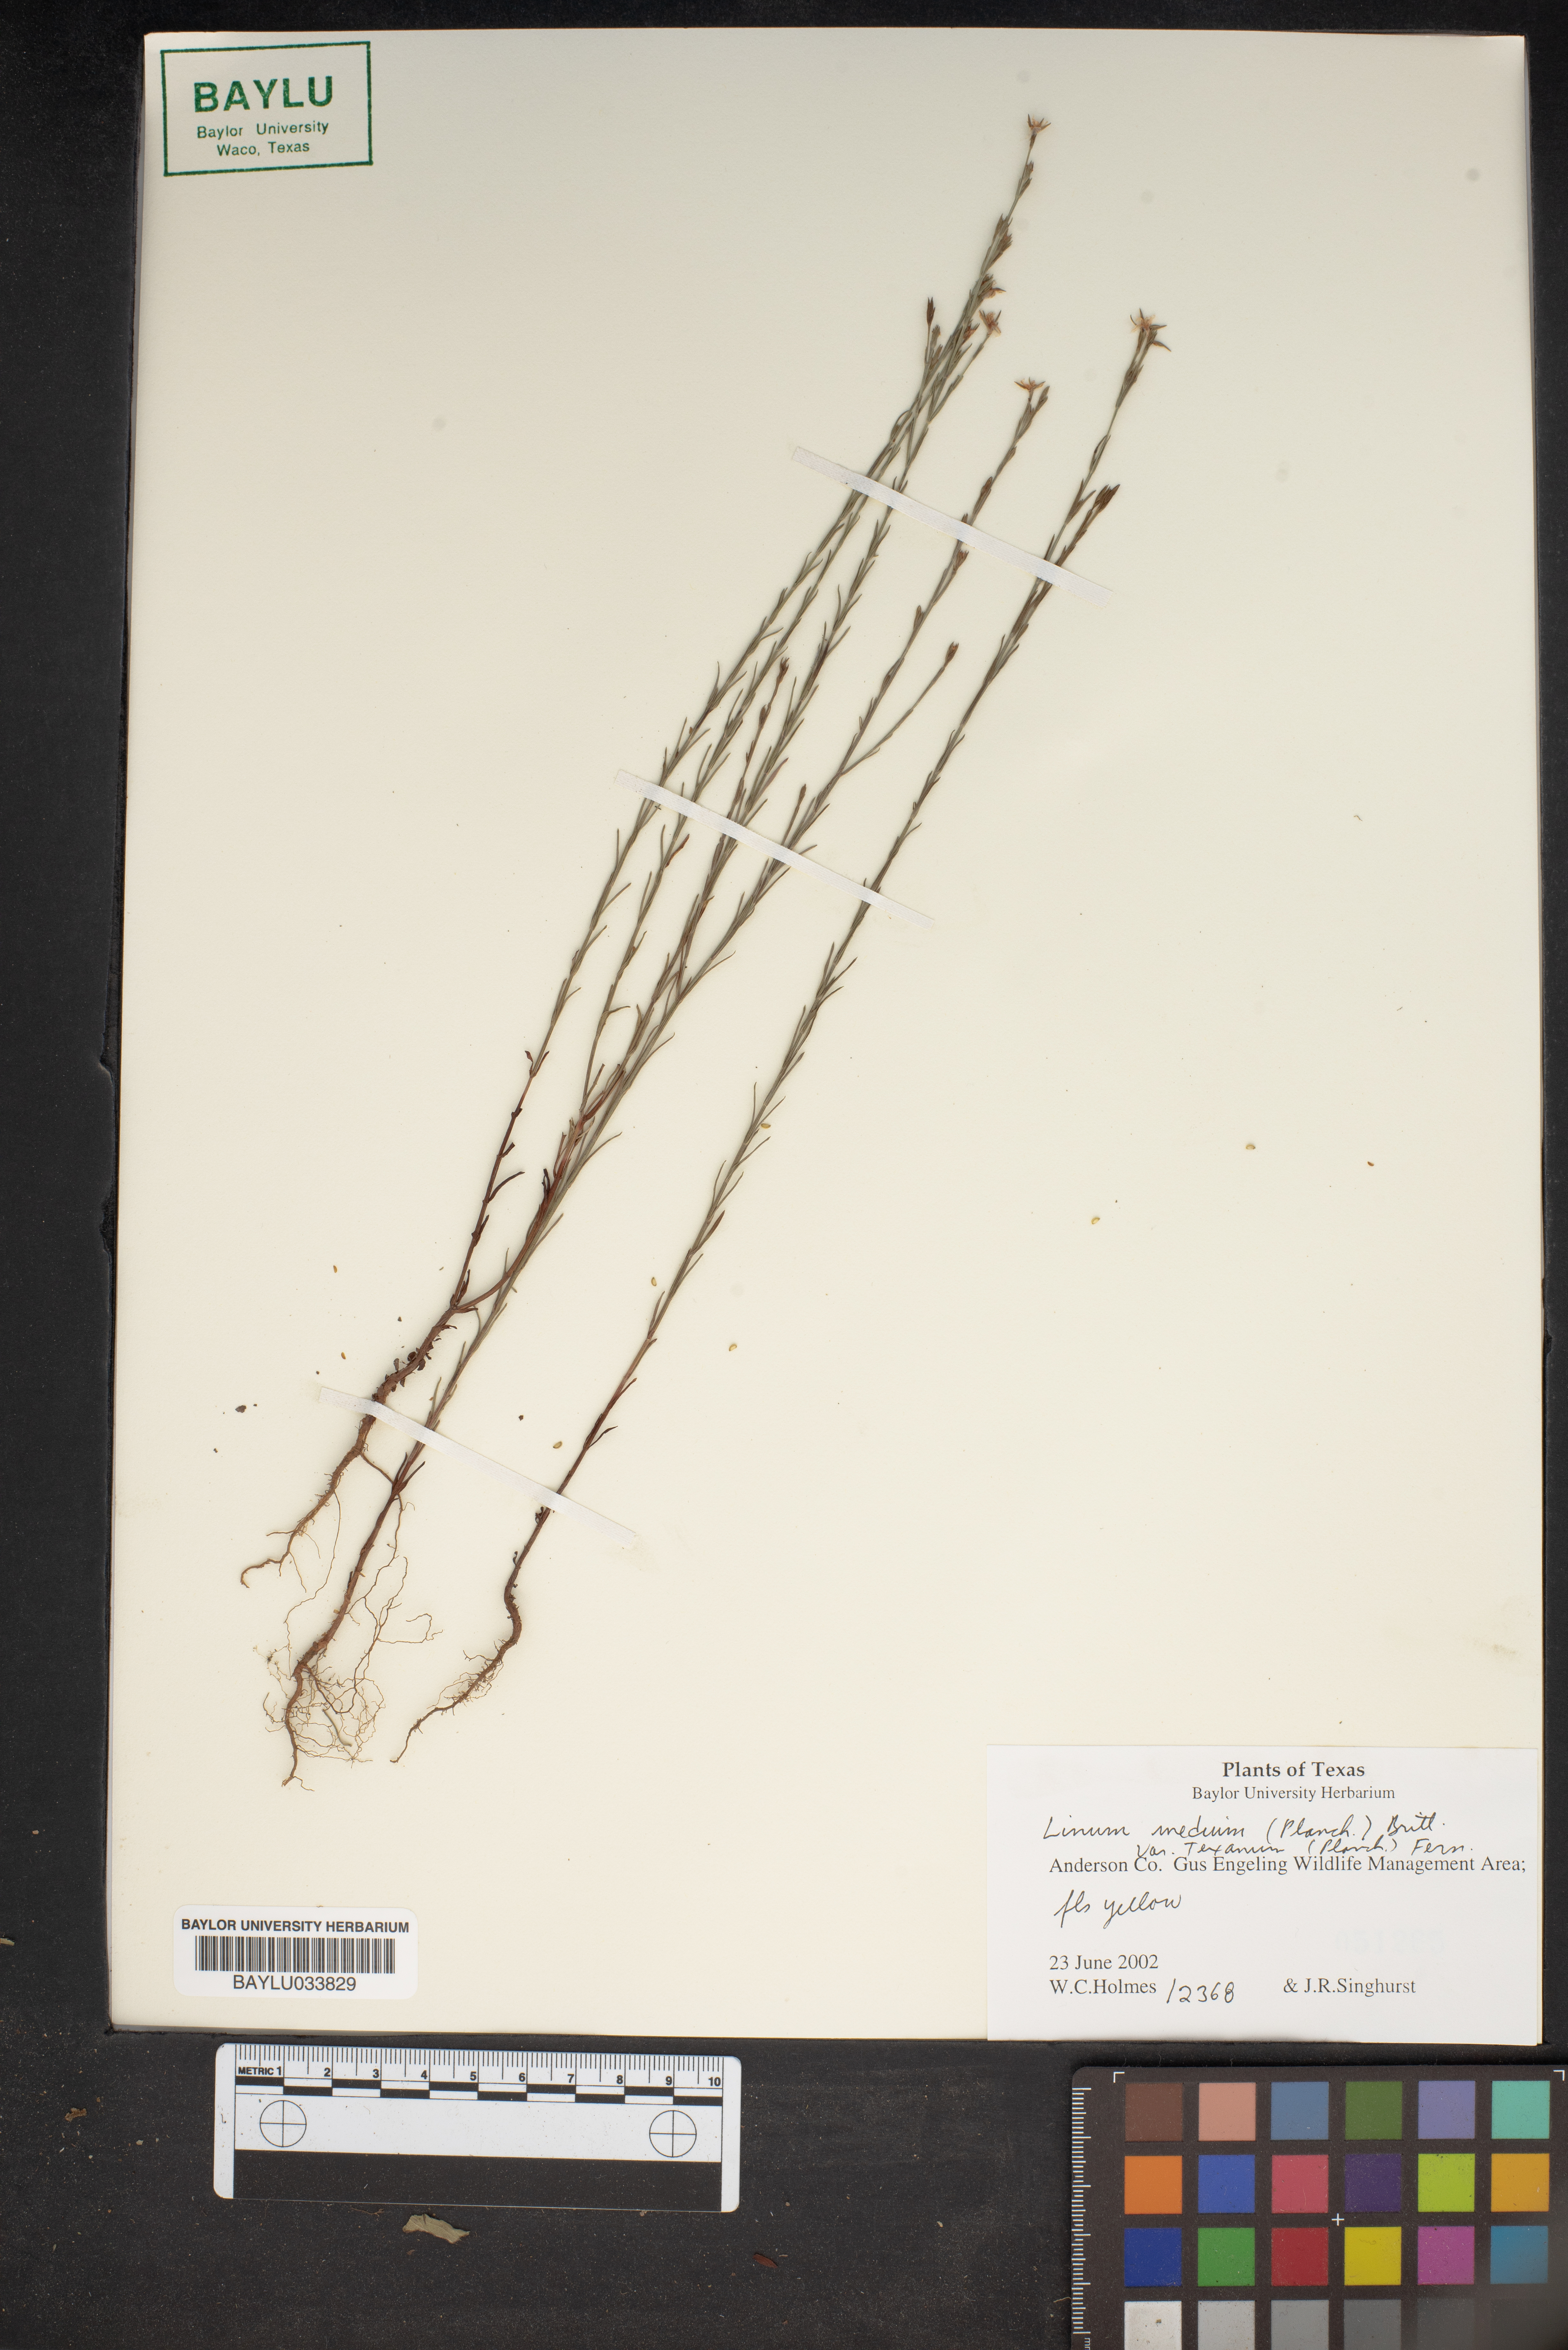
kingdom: Plantae
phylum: Tracheophyta
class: Magnoliopsida
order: Malpighiales
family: Linaceae
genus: Linum
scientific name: Linum medium
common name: Stiff yellow flax
